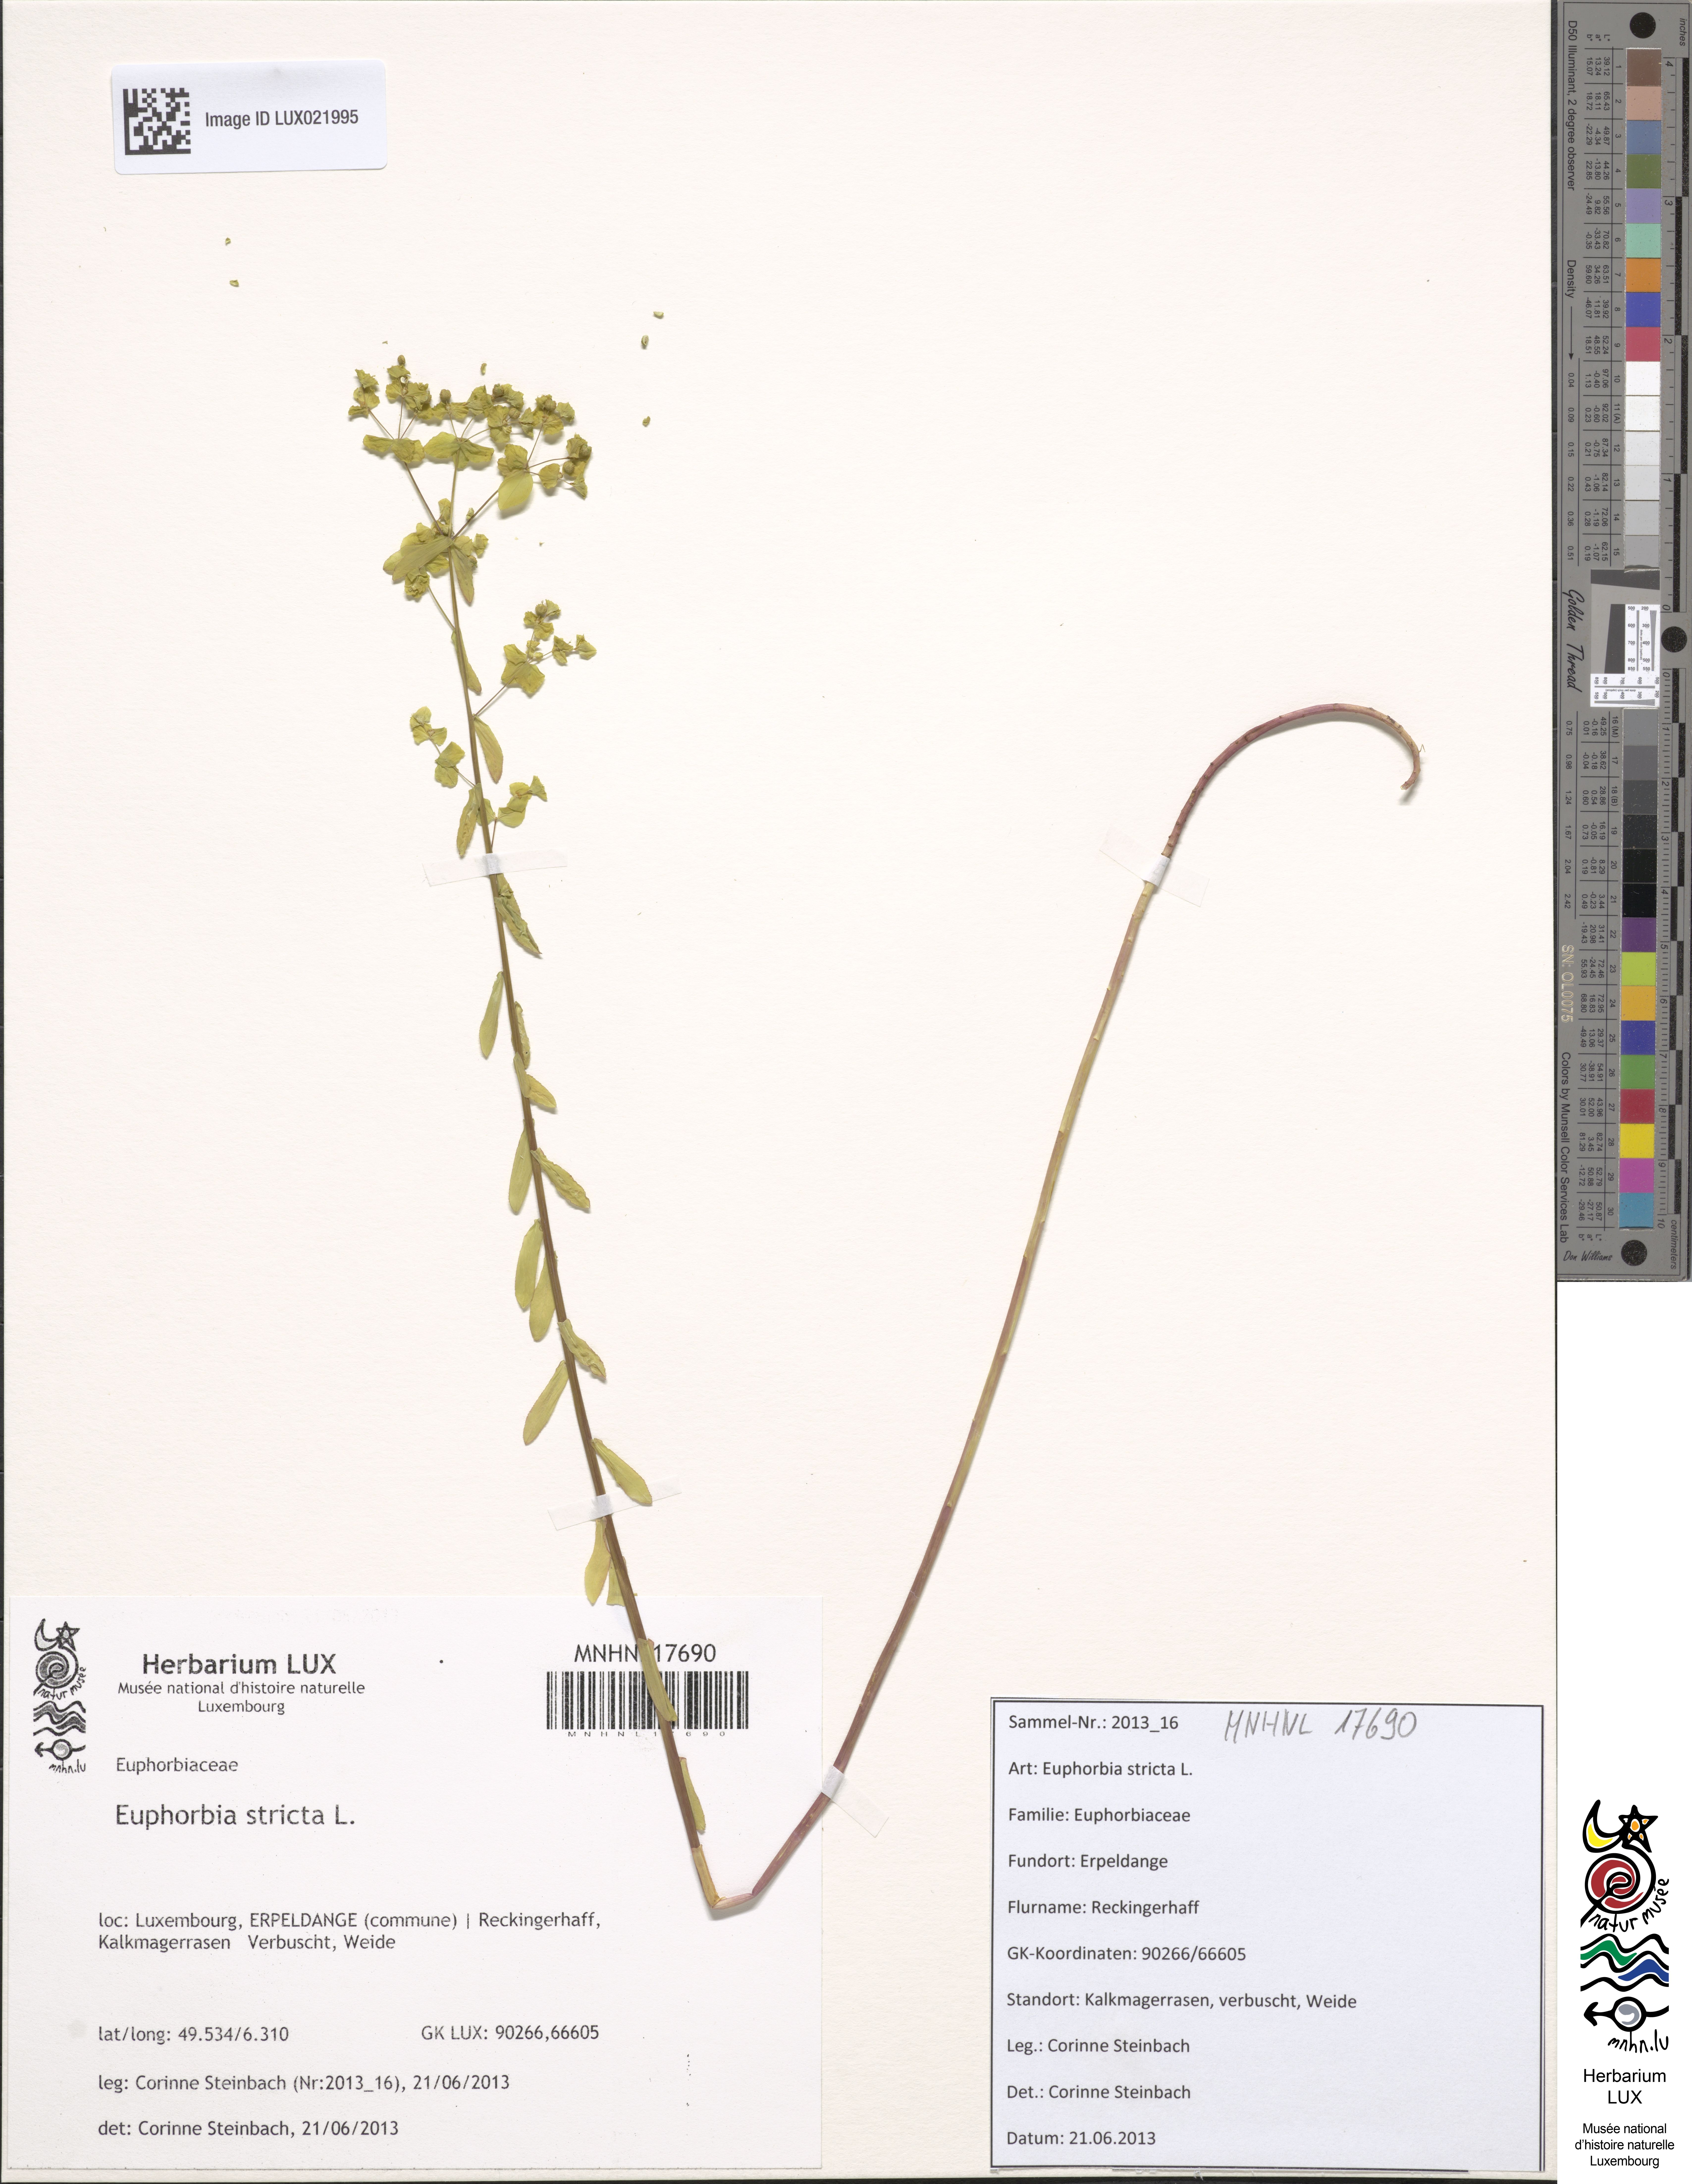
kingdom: Plantae
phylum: Tracheophyta
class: Magnoliopsida
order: Malpighiales
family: Euphorbiaceae
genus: Euphorbia
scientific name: Euphorbia stricta
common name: Upright spurge
